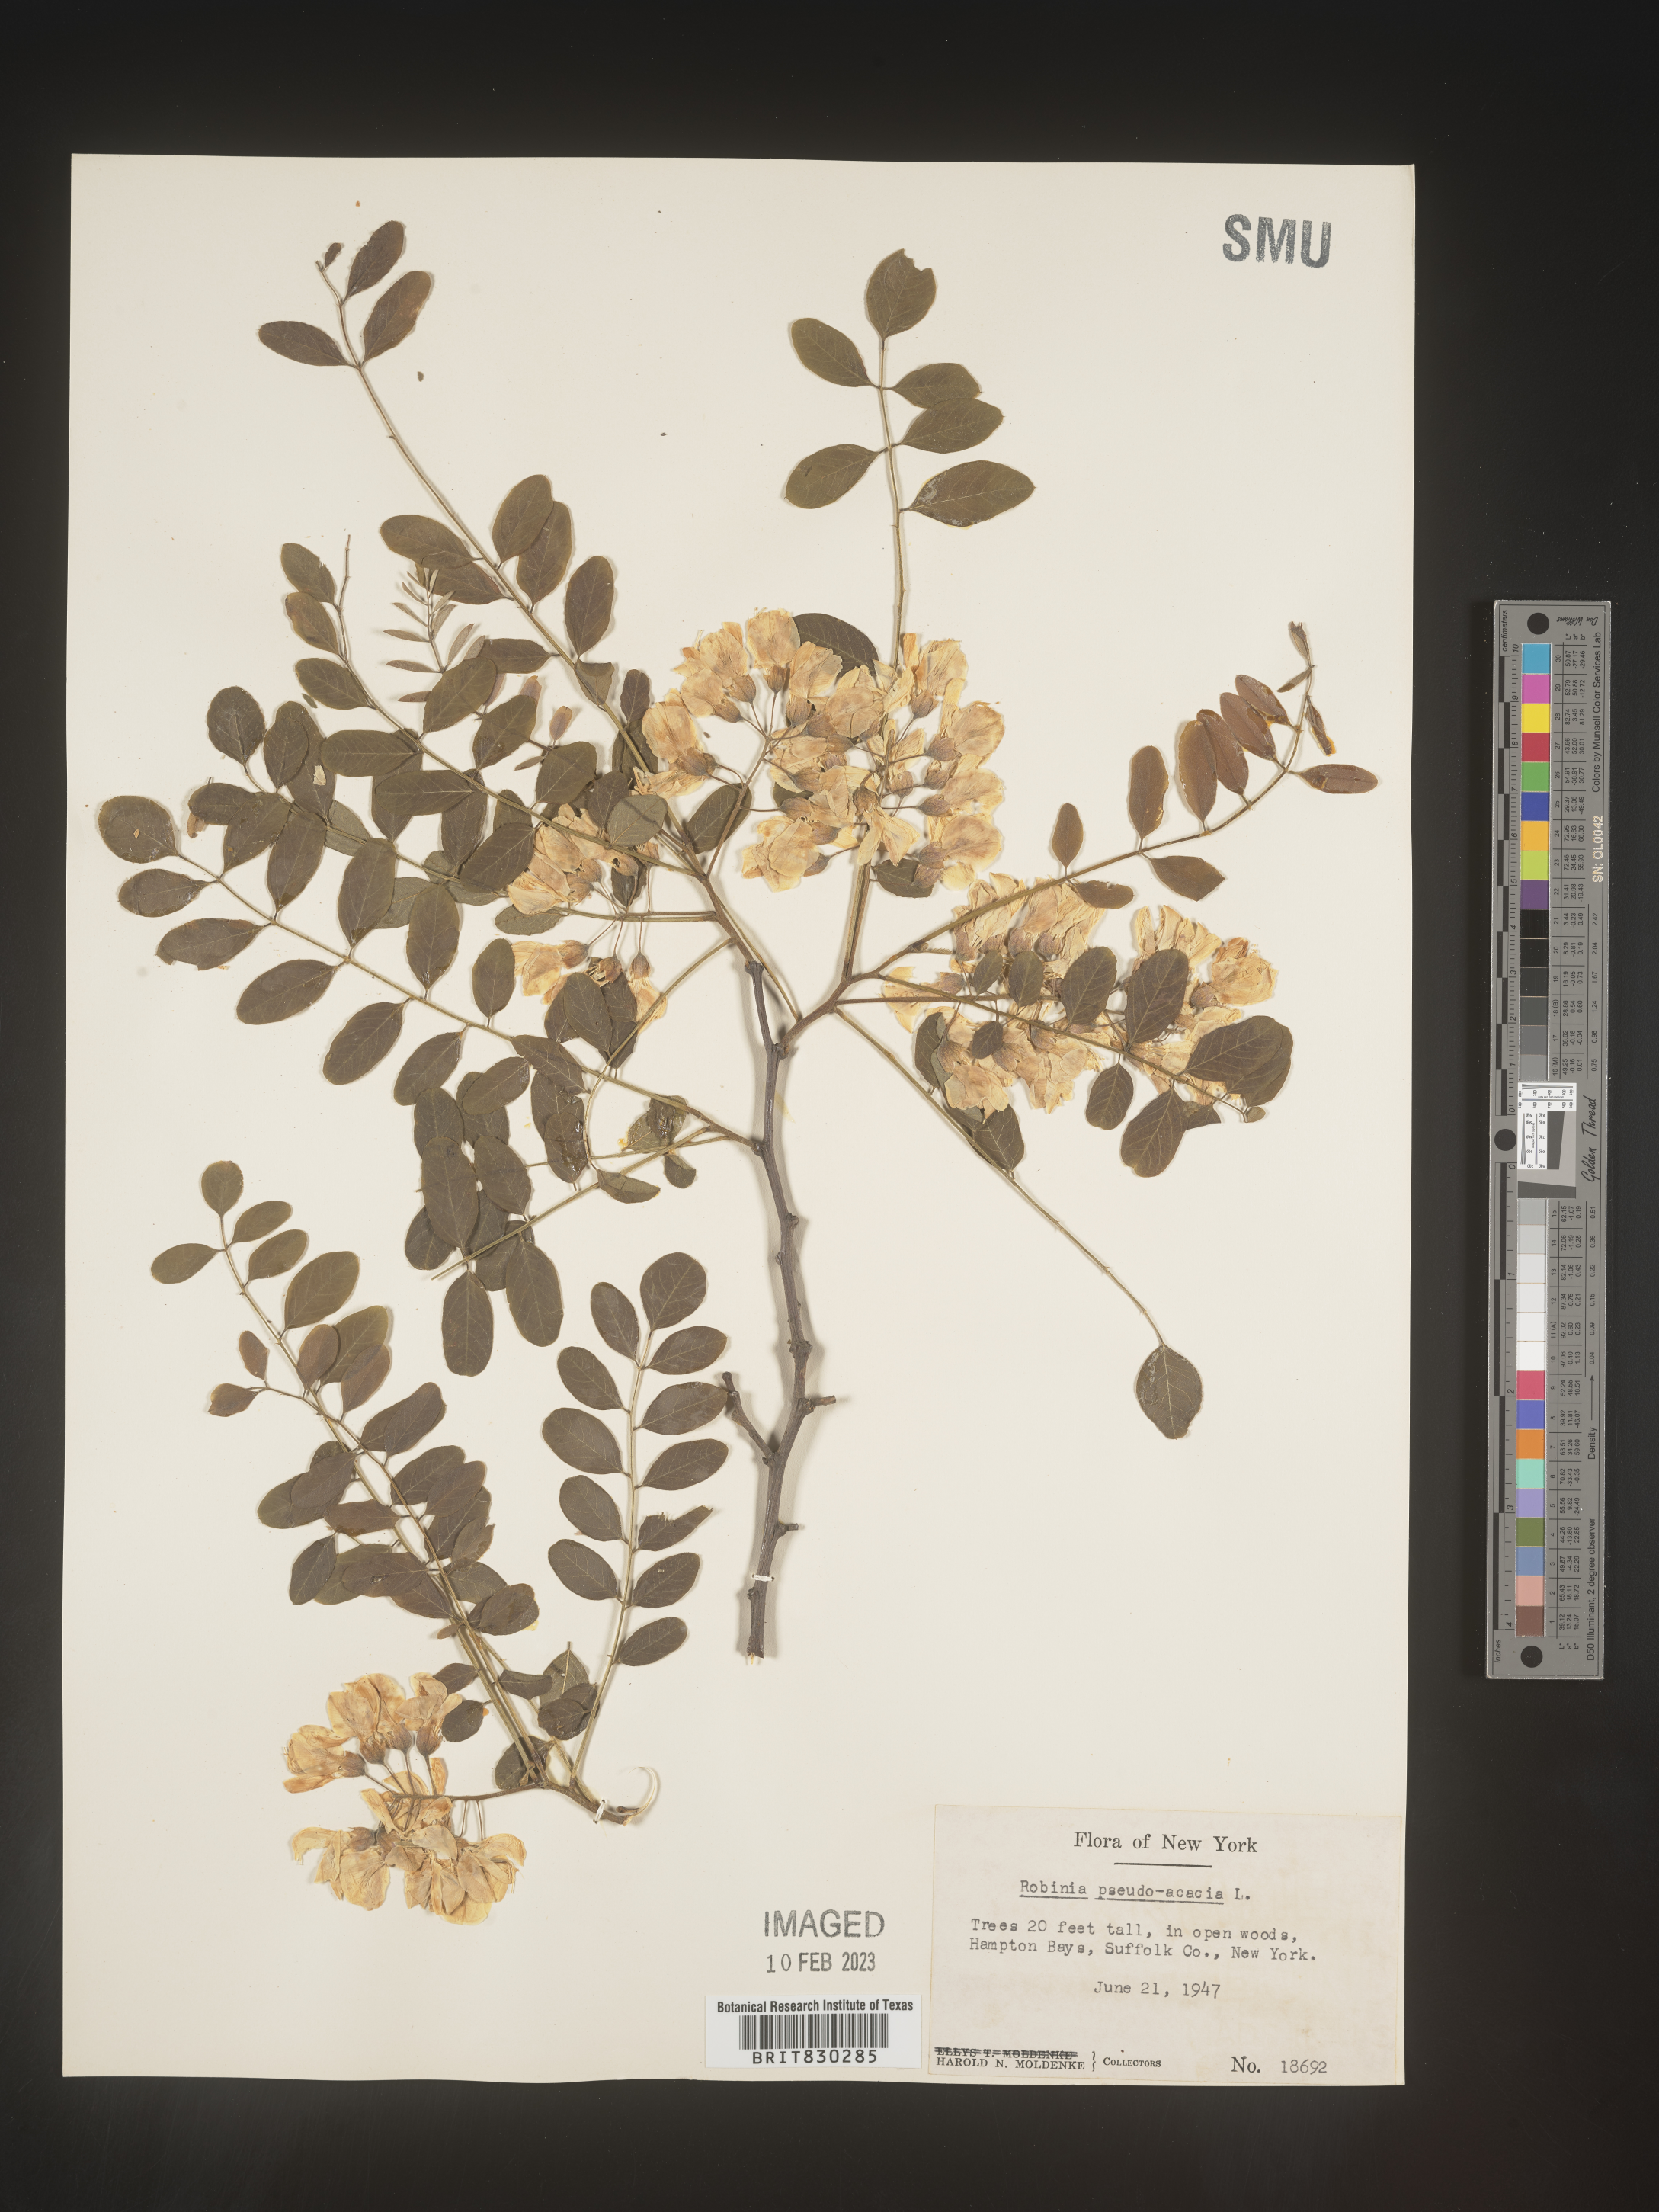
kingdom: Plantae
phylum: Tracheophyta
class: Magnoliopsida
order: Fabales
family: Fabaceae
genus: Robinia
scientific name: Robinia pseudoacacia
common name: Black locust
